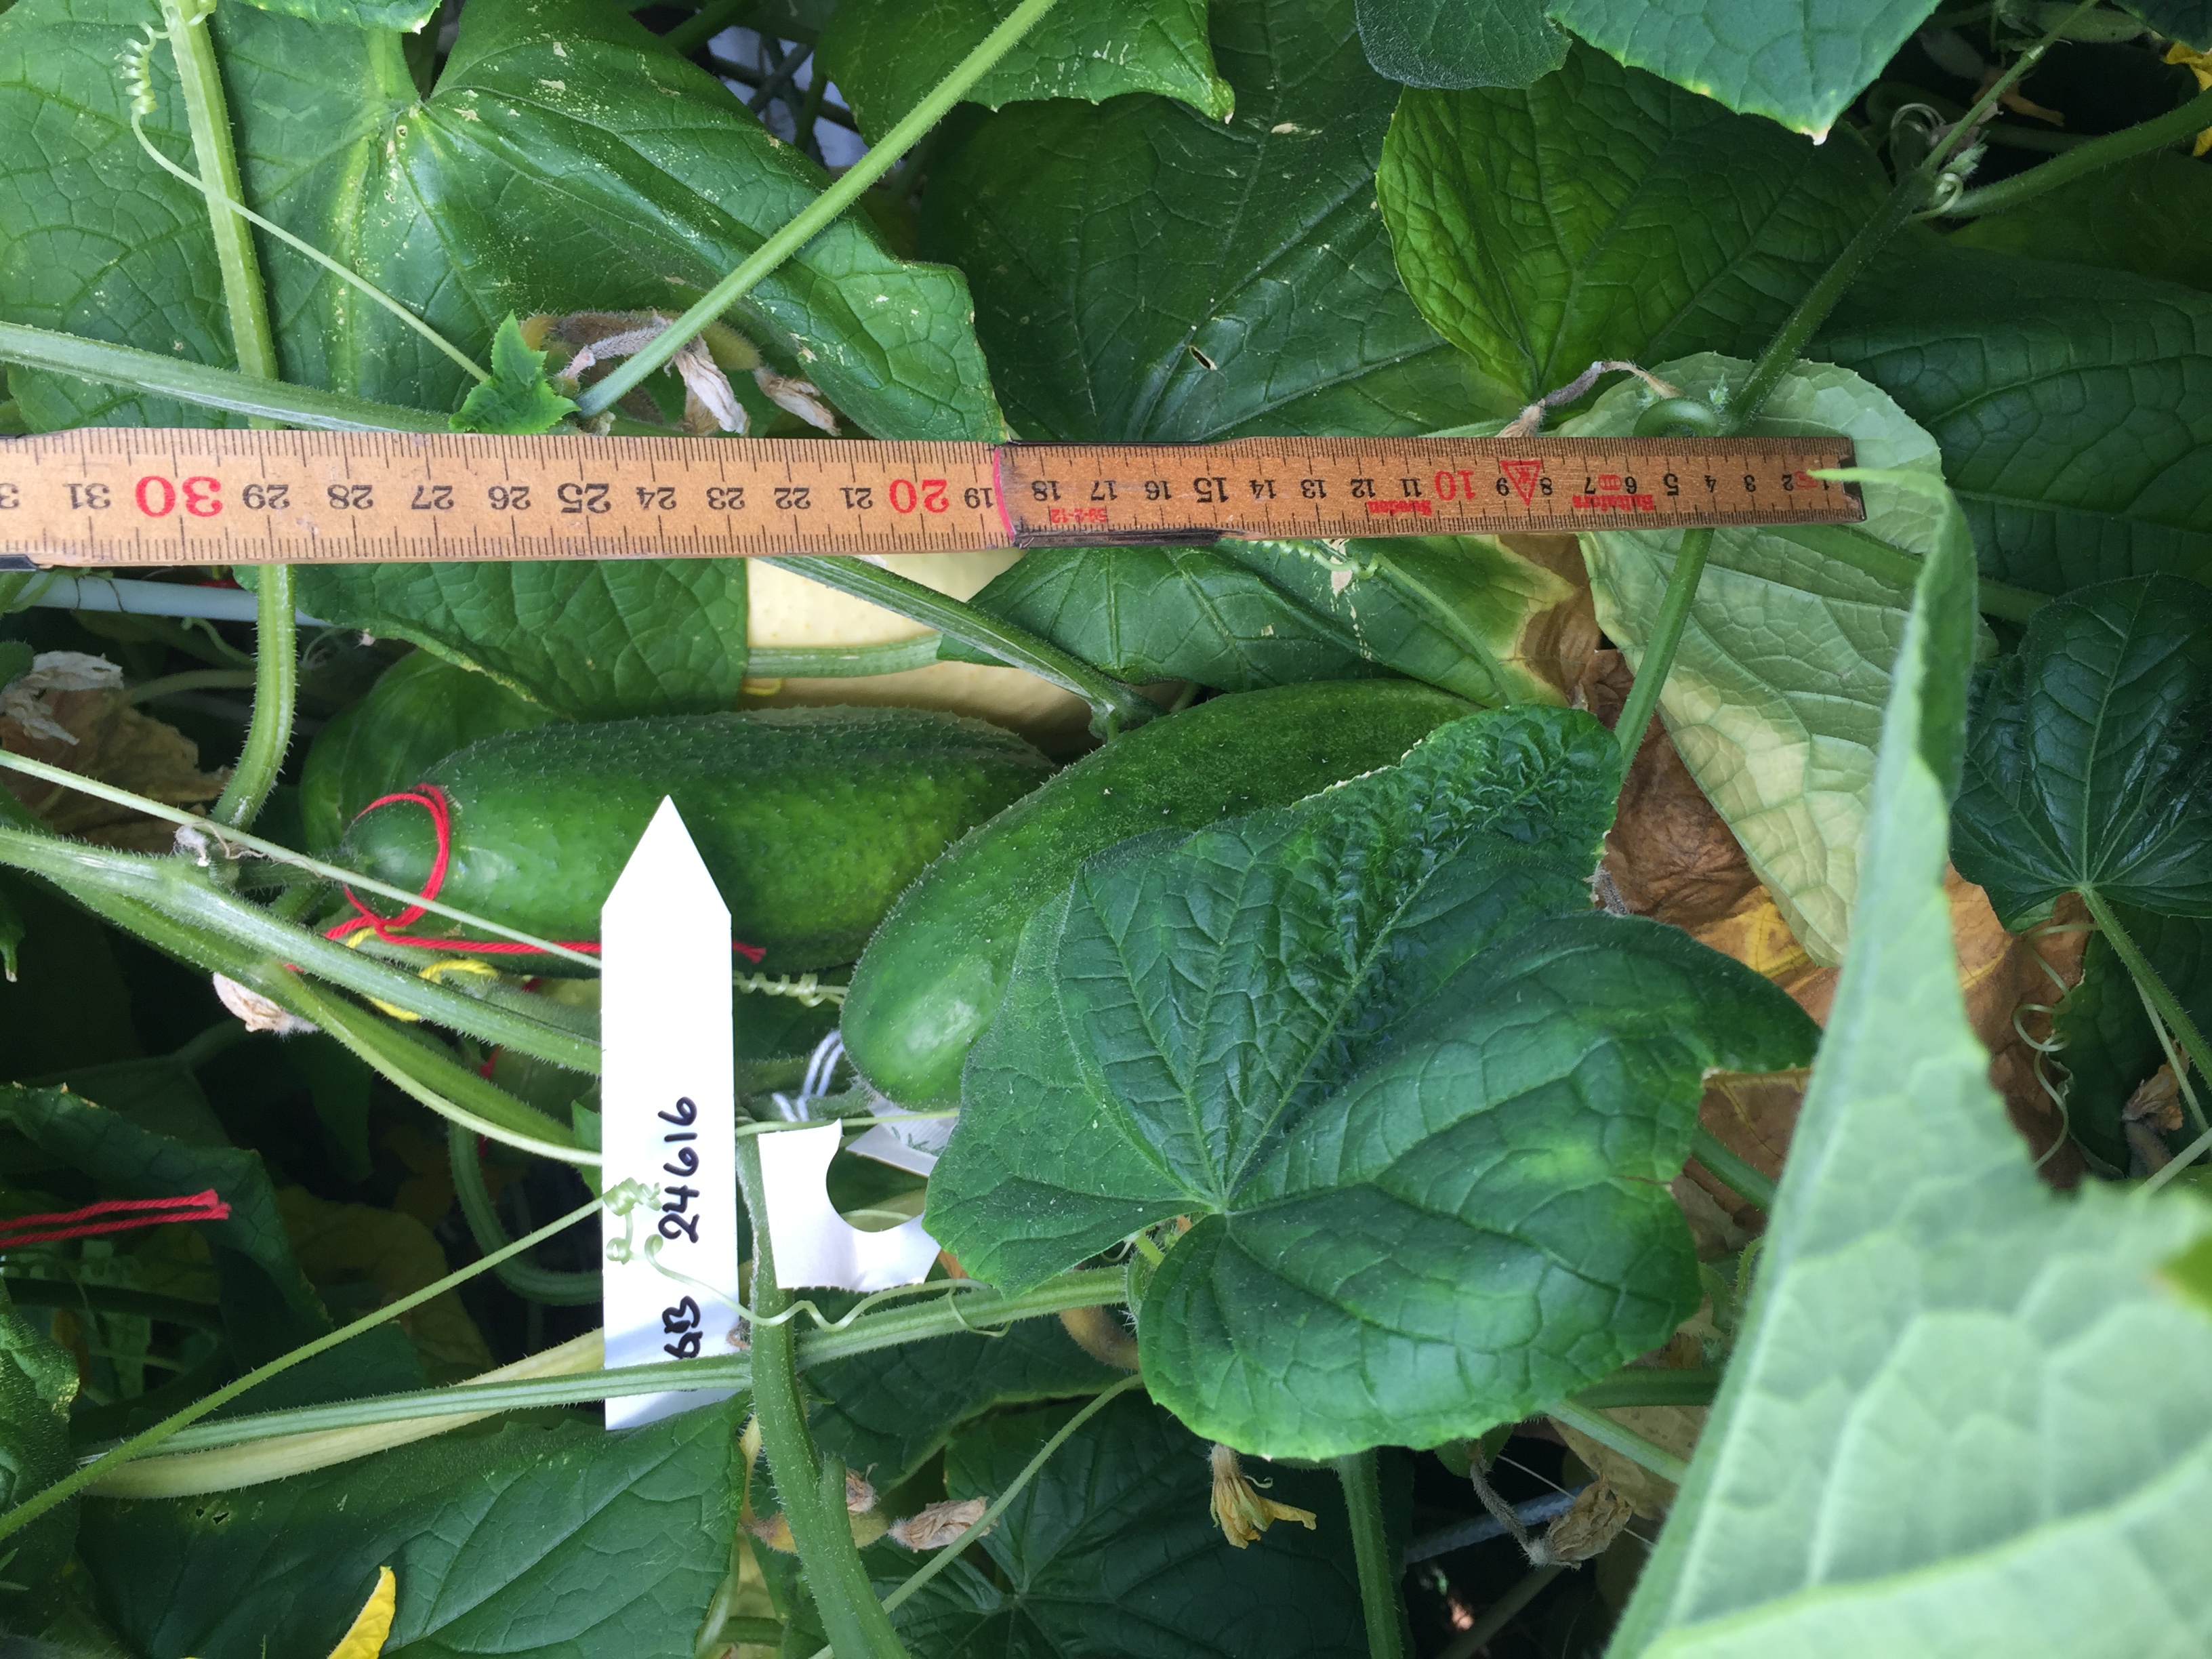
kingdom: Plantae
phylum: Tracheophyta
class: Magnoliopsida
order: Cucurbitales
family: Cucurbitaceae
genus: Cucumis
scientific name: Cucumis sativus
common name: Cucumber
